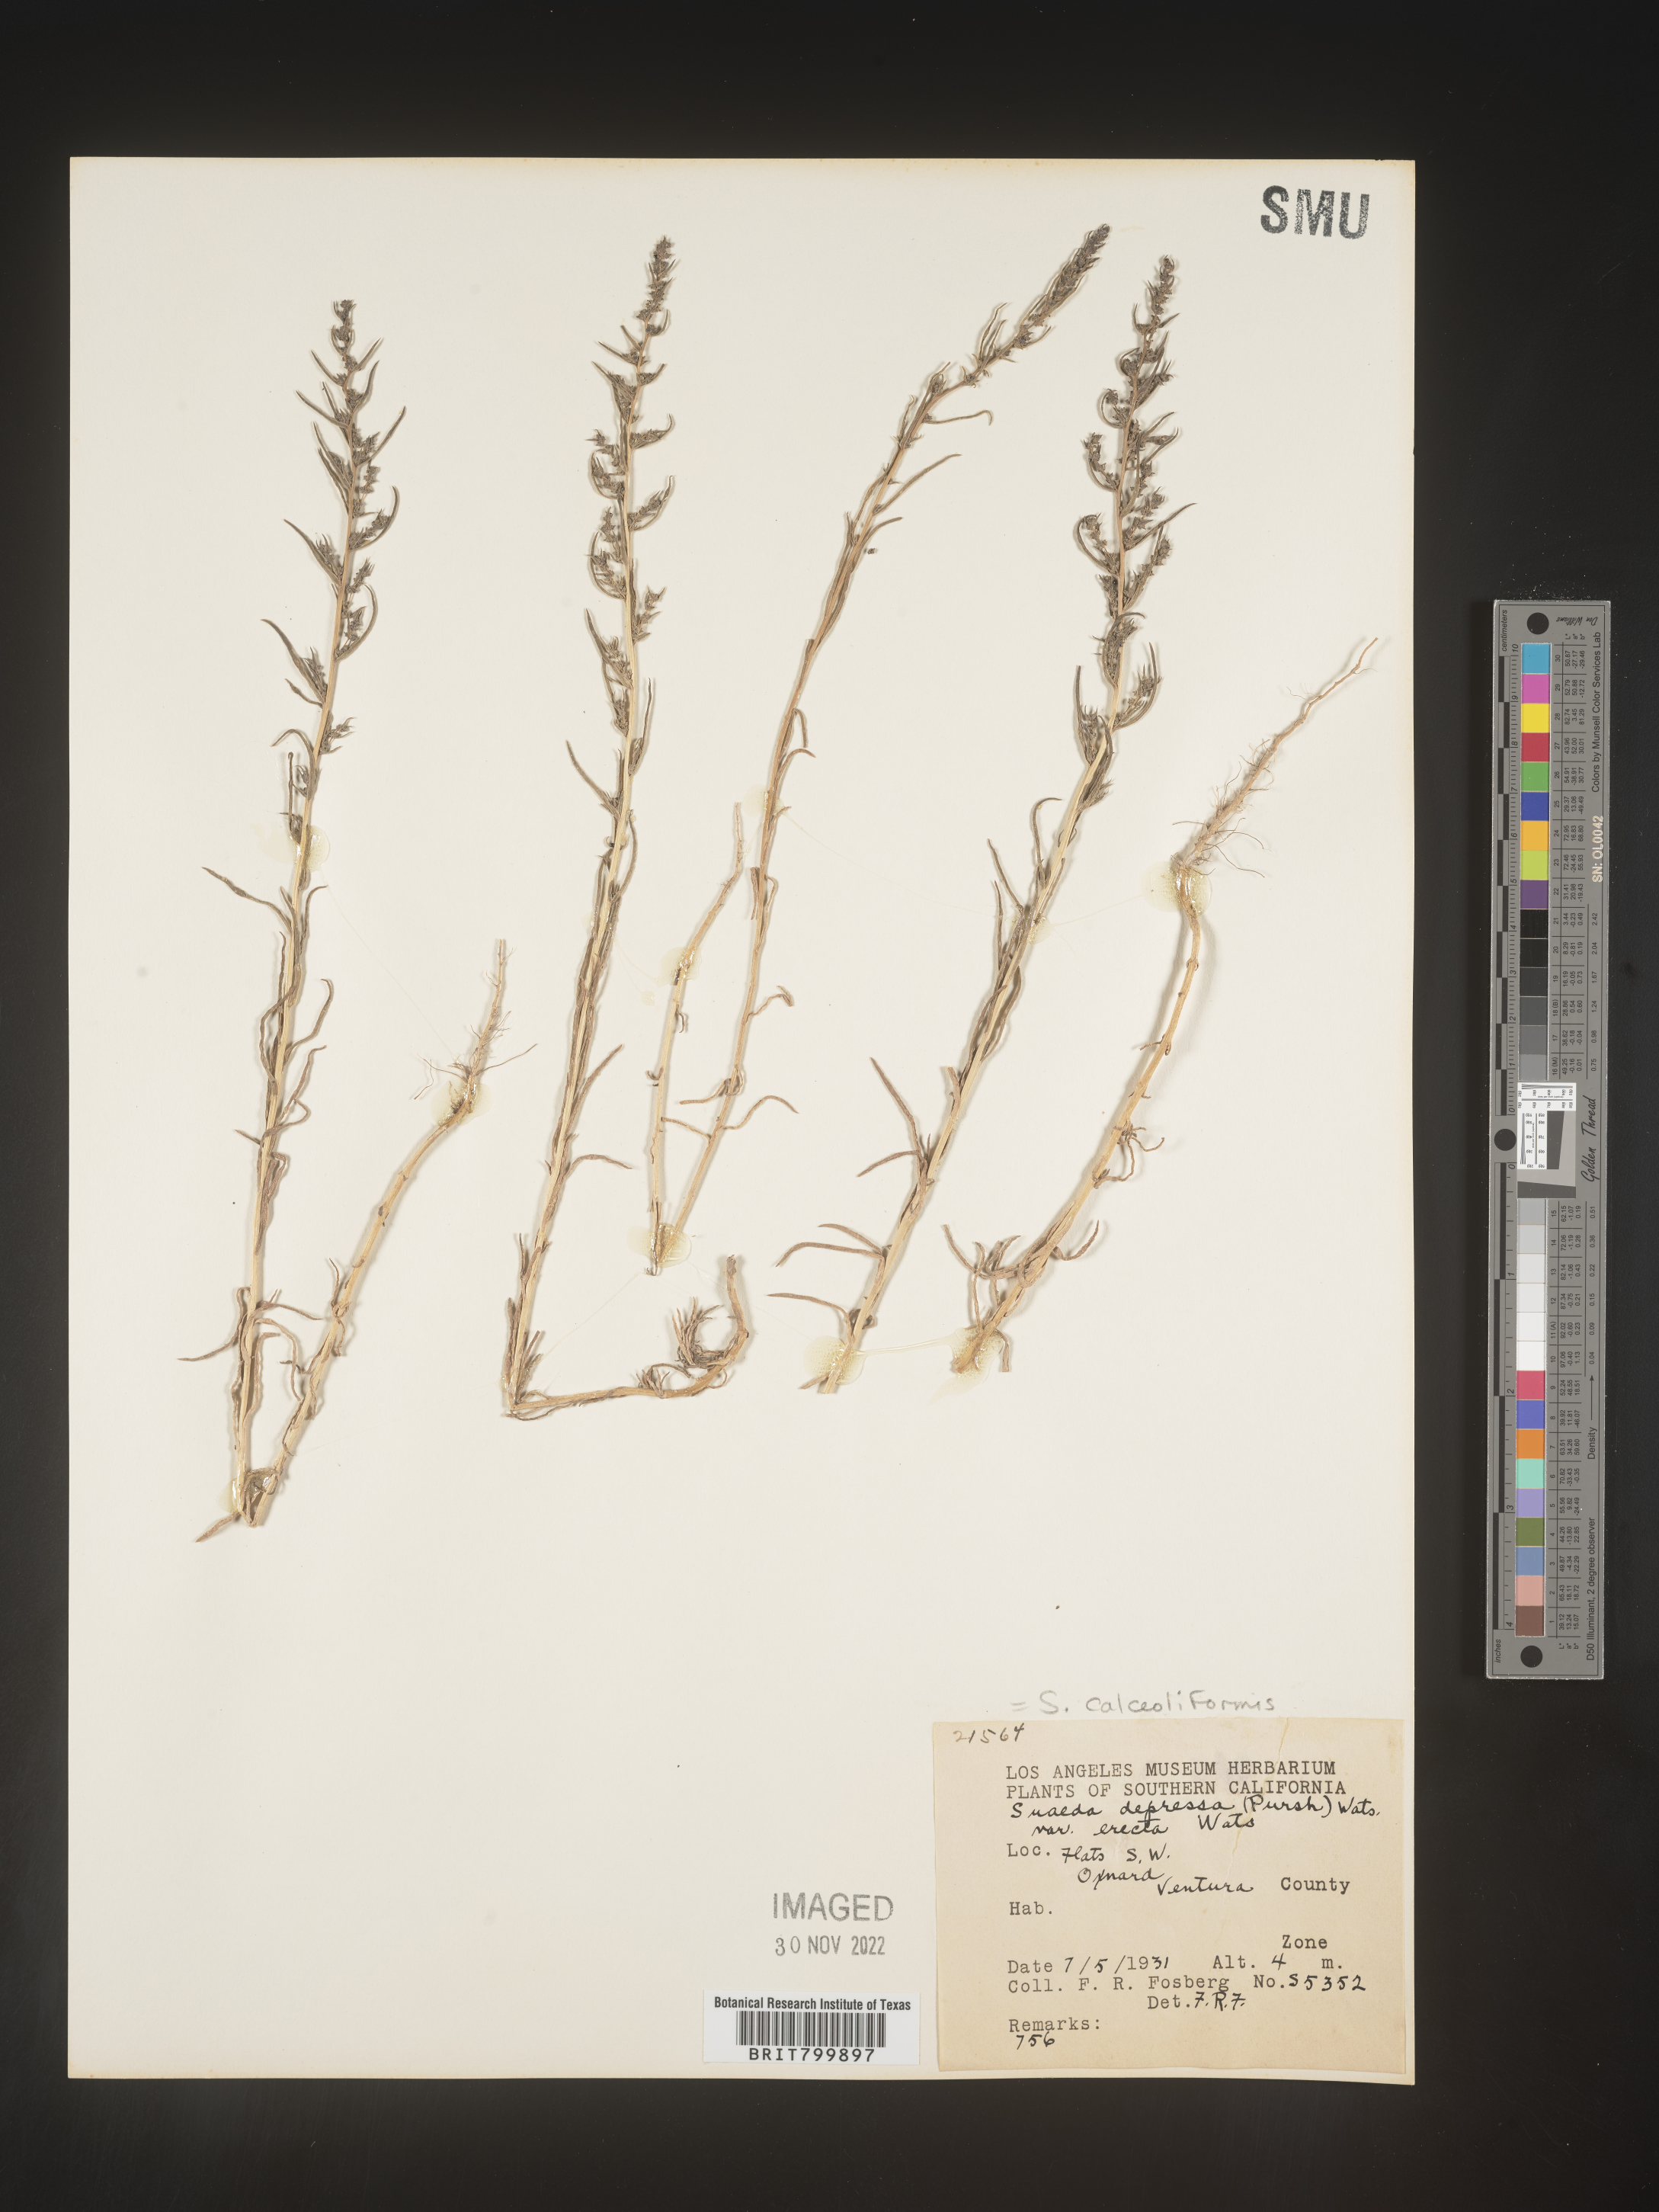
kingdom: Plantae
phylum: Tracheophyta
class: Magnoliopsida
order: Caryophyllales
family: Amaranthaceae
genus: Suaeda
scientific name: Suaeda calceoliformis
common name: Pursh's seepweed
